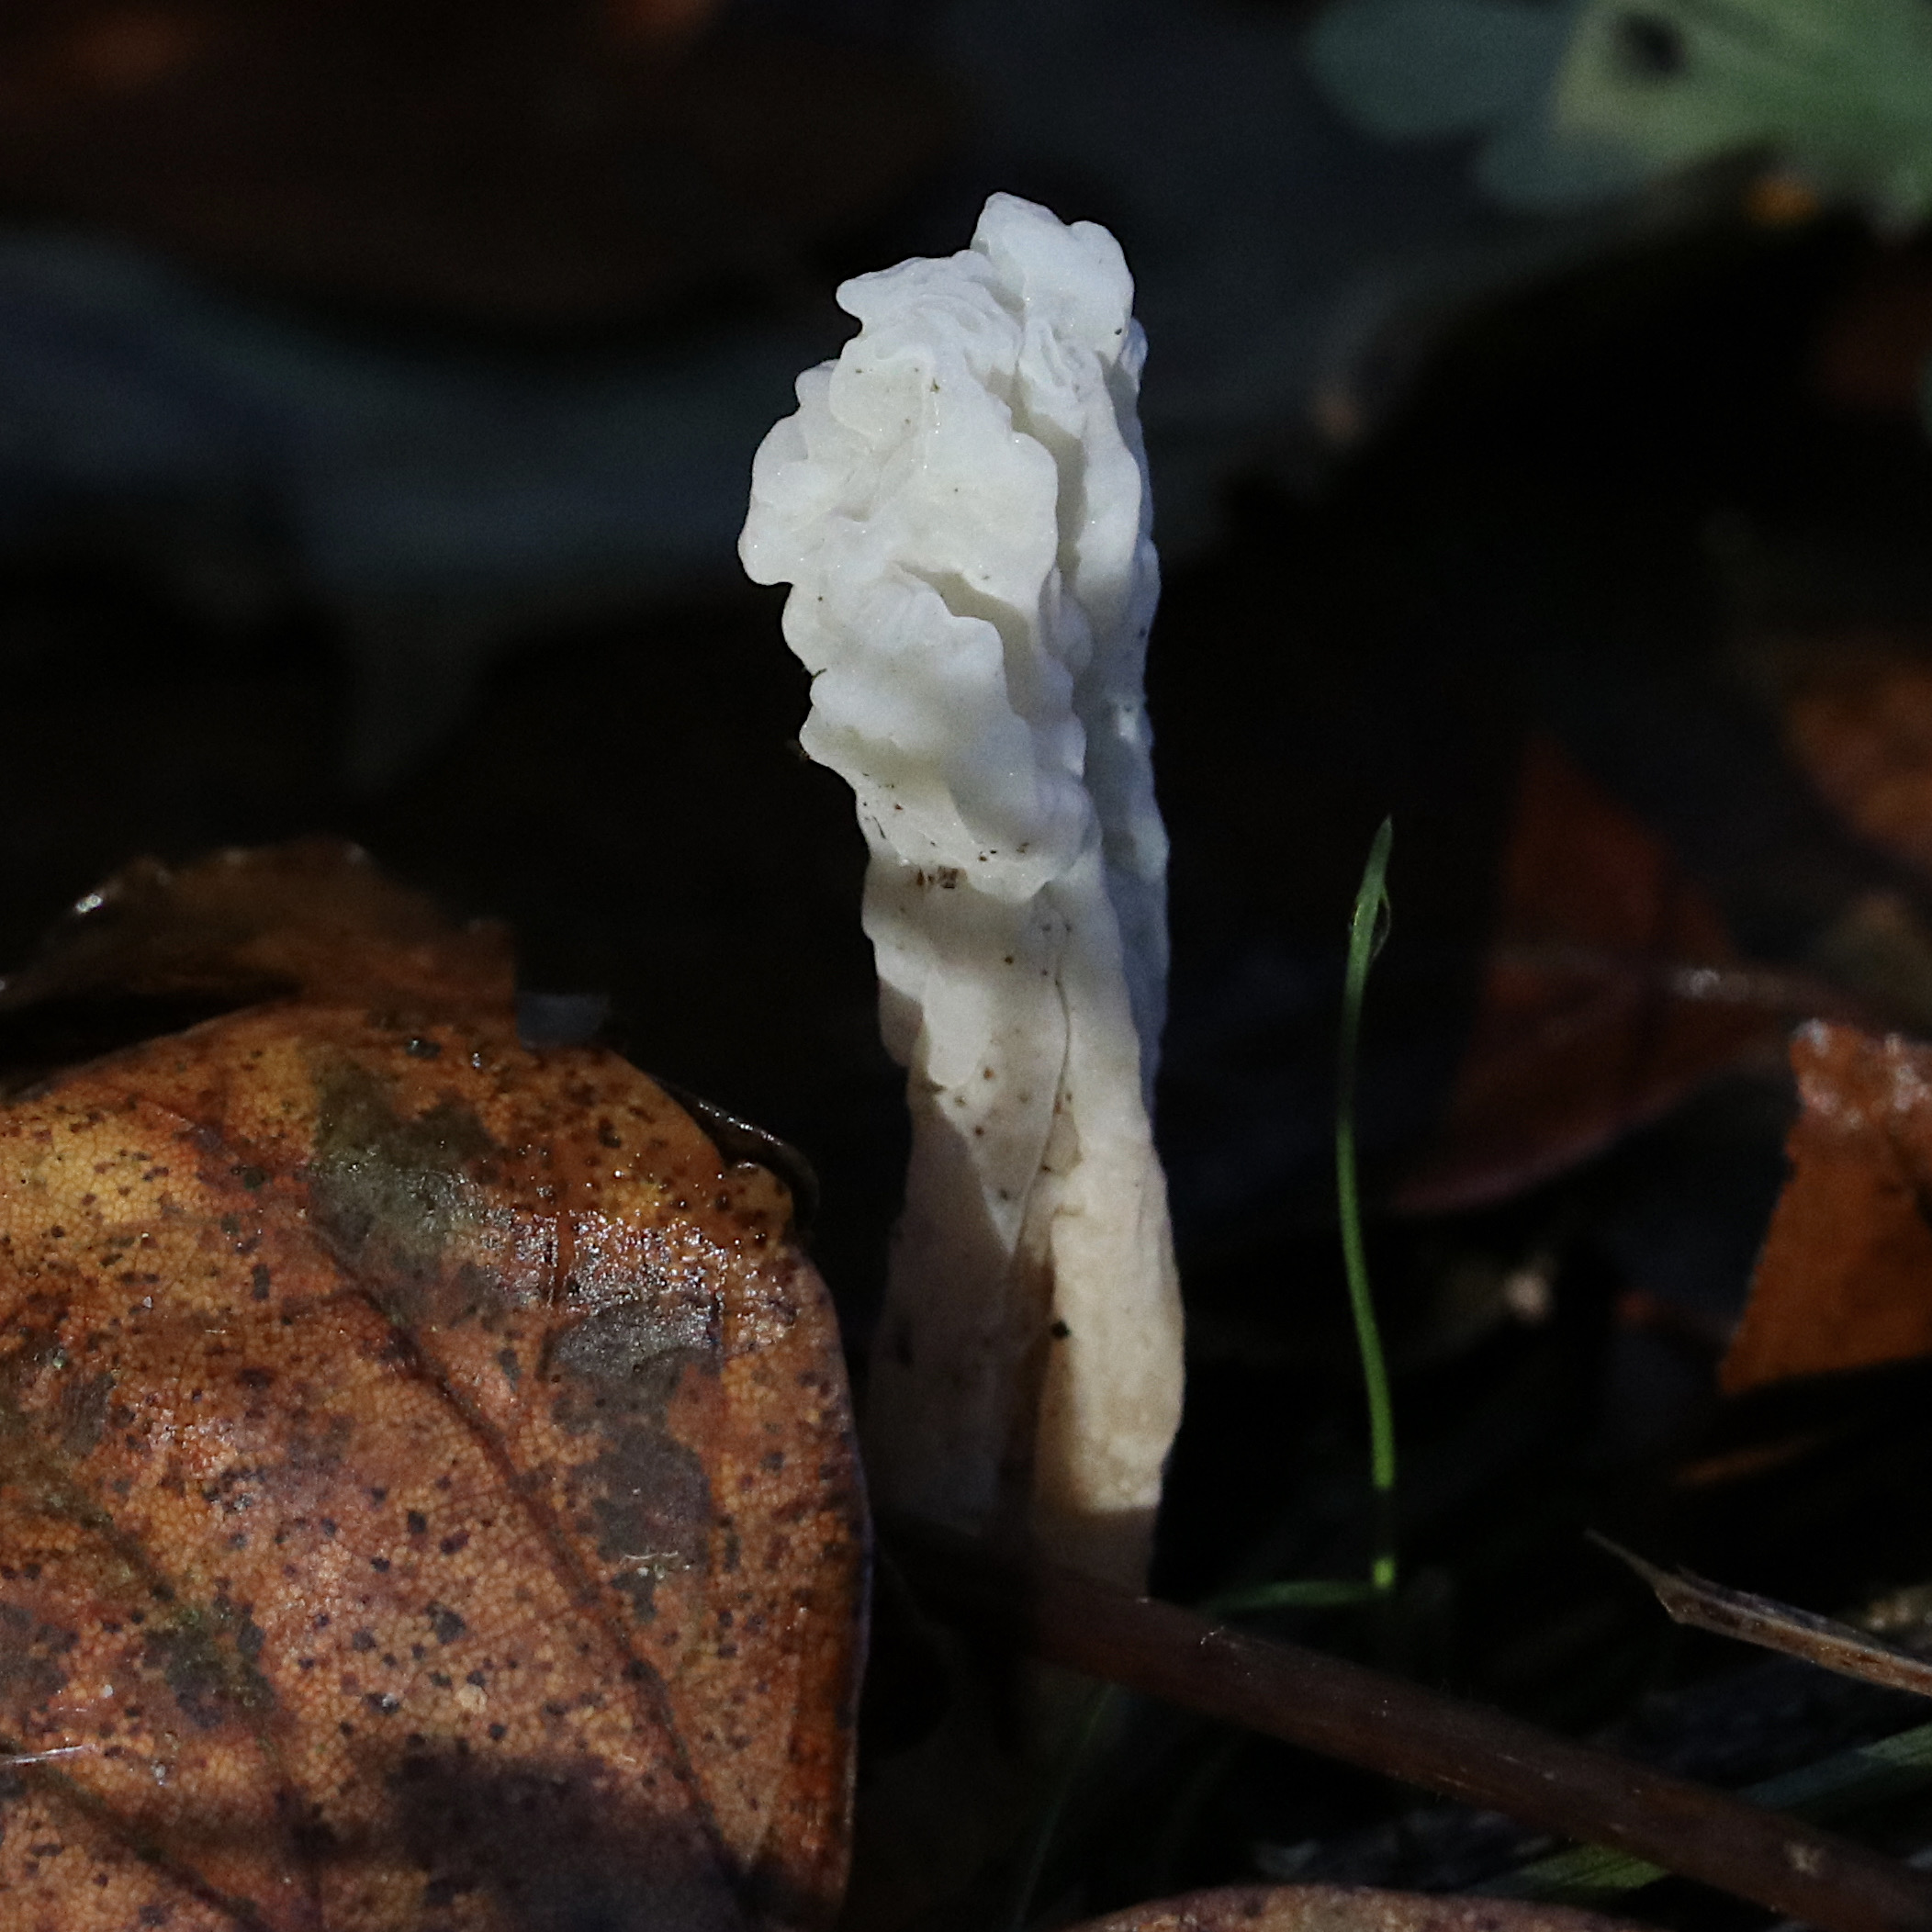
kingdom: Fungi
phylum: Ascomycota
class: Pezizomycetes
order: Pezizales
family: Helvellaceae
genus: Helvella
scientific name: Helvella crispa
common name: kruset foldhat
